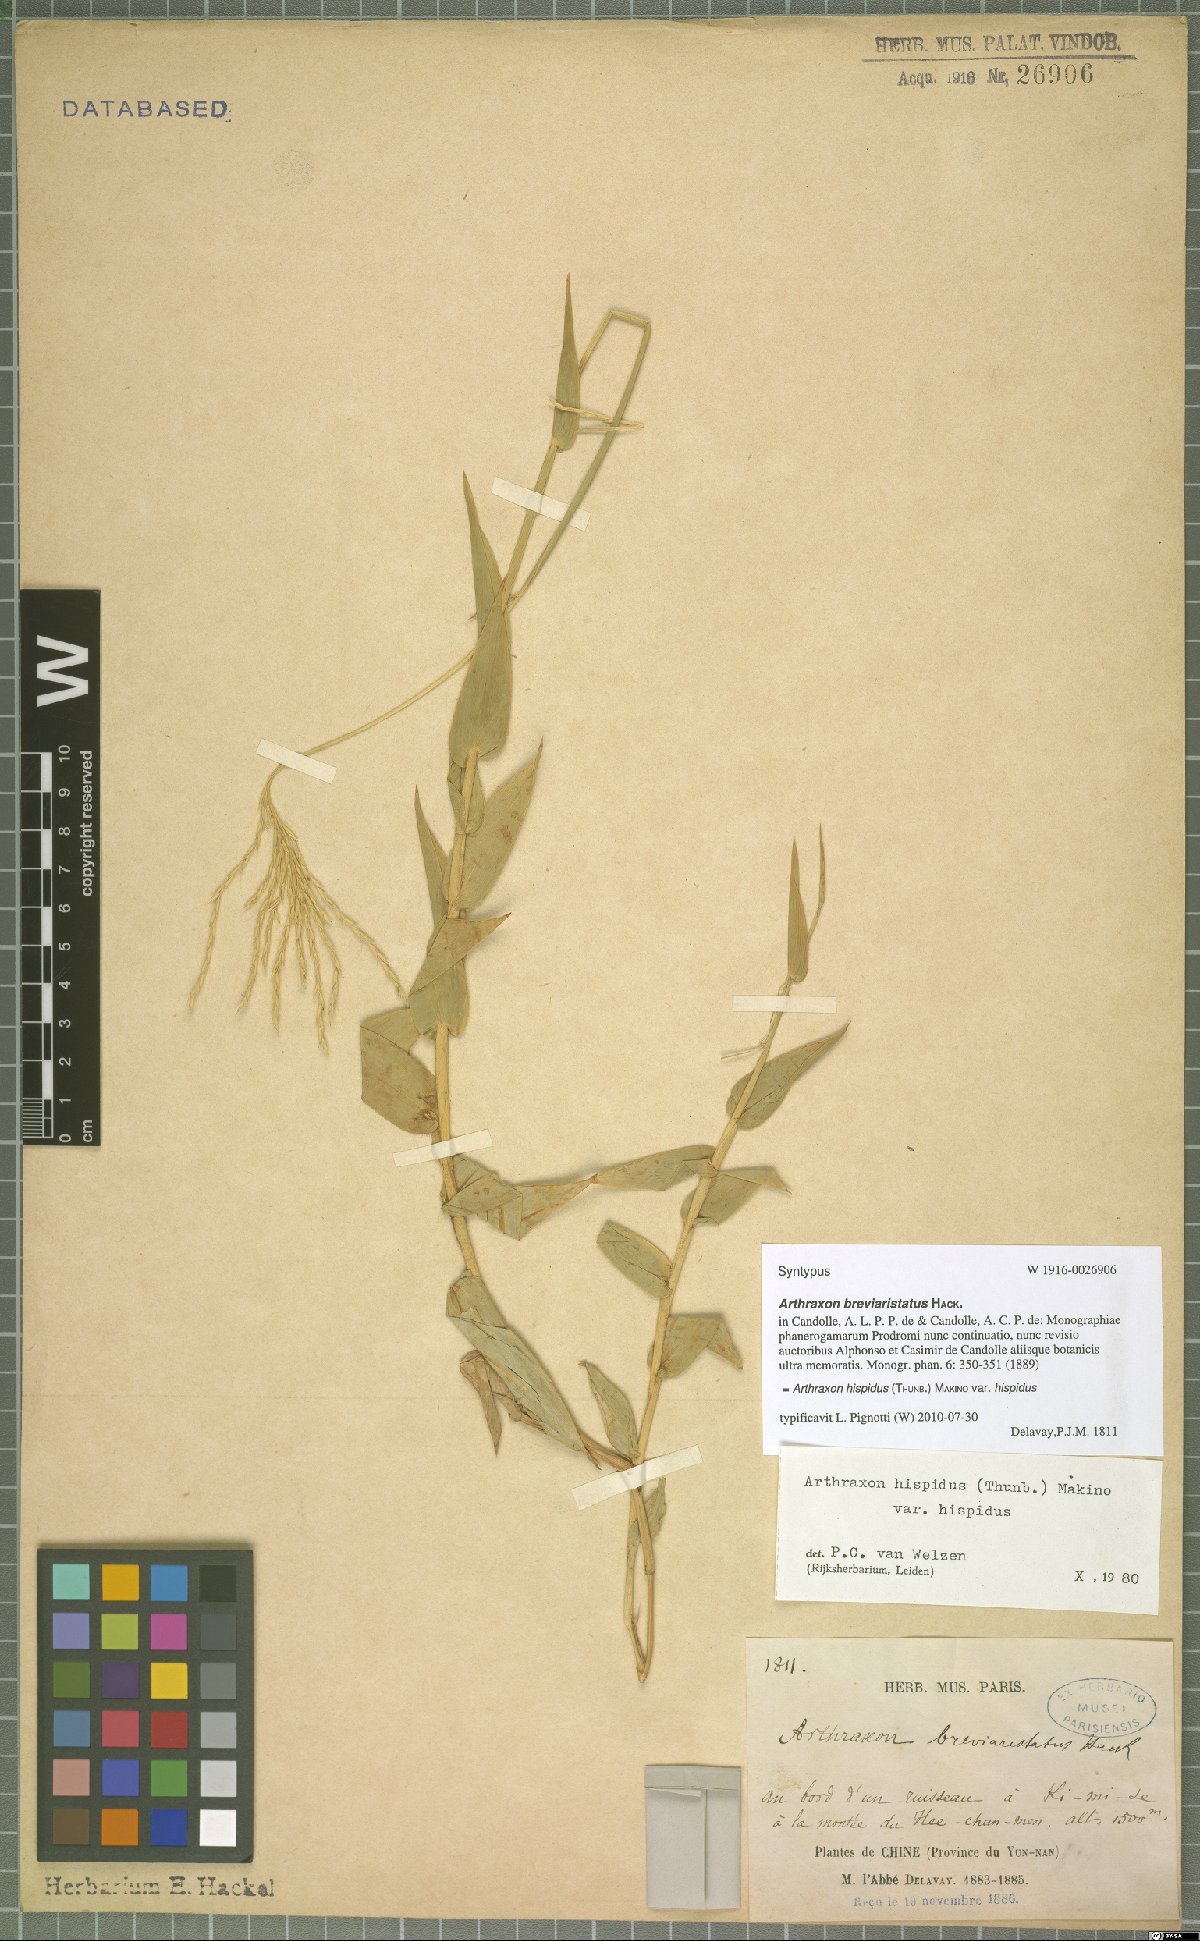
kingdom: Plantae
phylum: Tracheophyta
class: Liliopsida
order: Poales
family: Poaceae
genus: Arthraxon
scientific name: Arthraxon hispidus
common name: Small carpgrass
